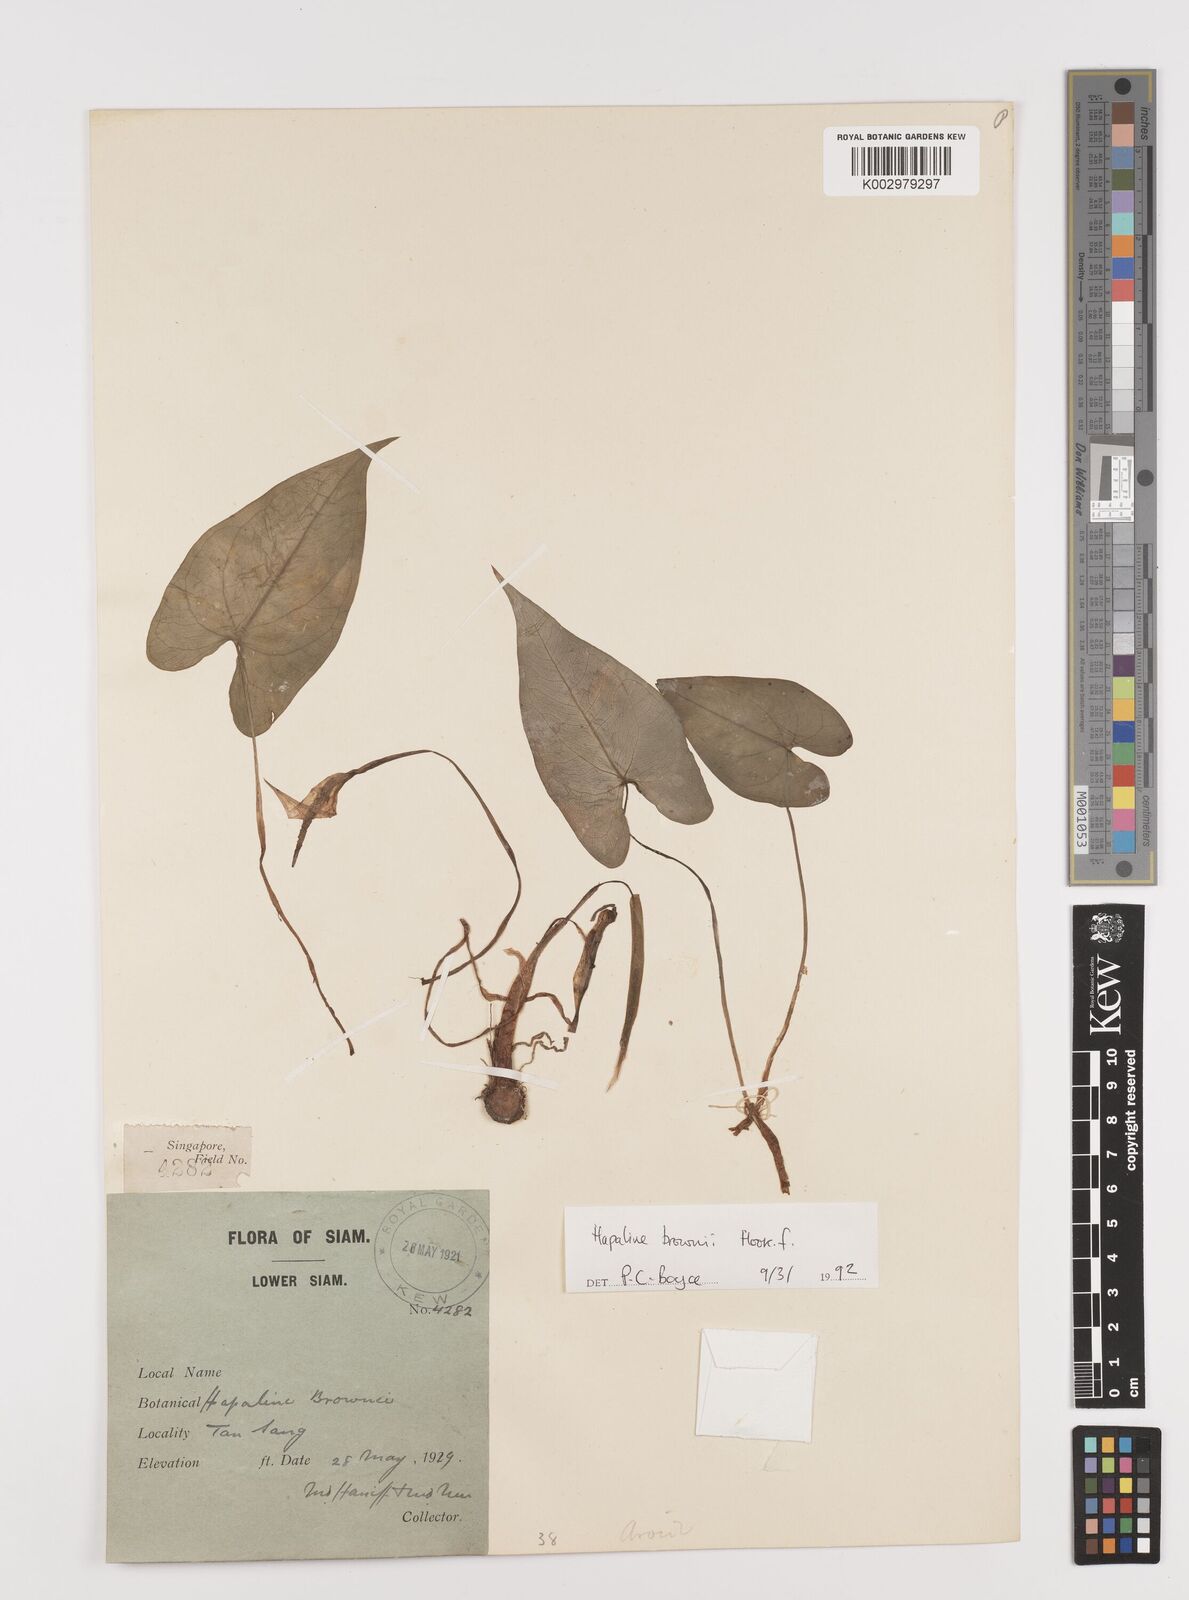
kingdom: Plantae
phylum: Tracheophyta
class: Liliopsida
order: Alismatales
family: Araceae
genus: Hapaline
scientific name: Hapaline brownii
